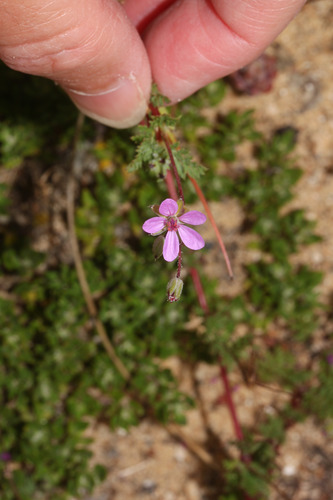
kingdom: Plantae
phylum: Tracheophyta
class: Magnoliopsida
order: Geraniales
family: Geraniaceae
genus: Erodium
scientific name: Erodium cicutarium
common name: Common stork's-bill
